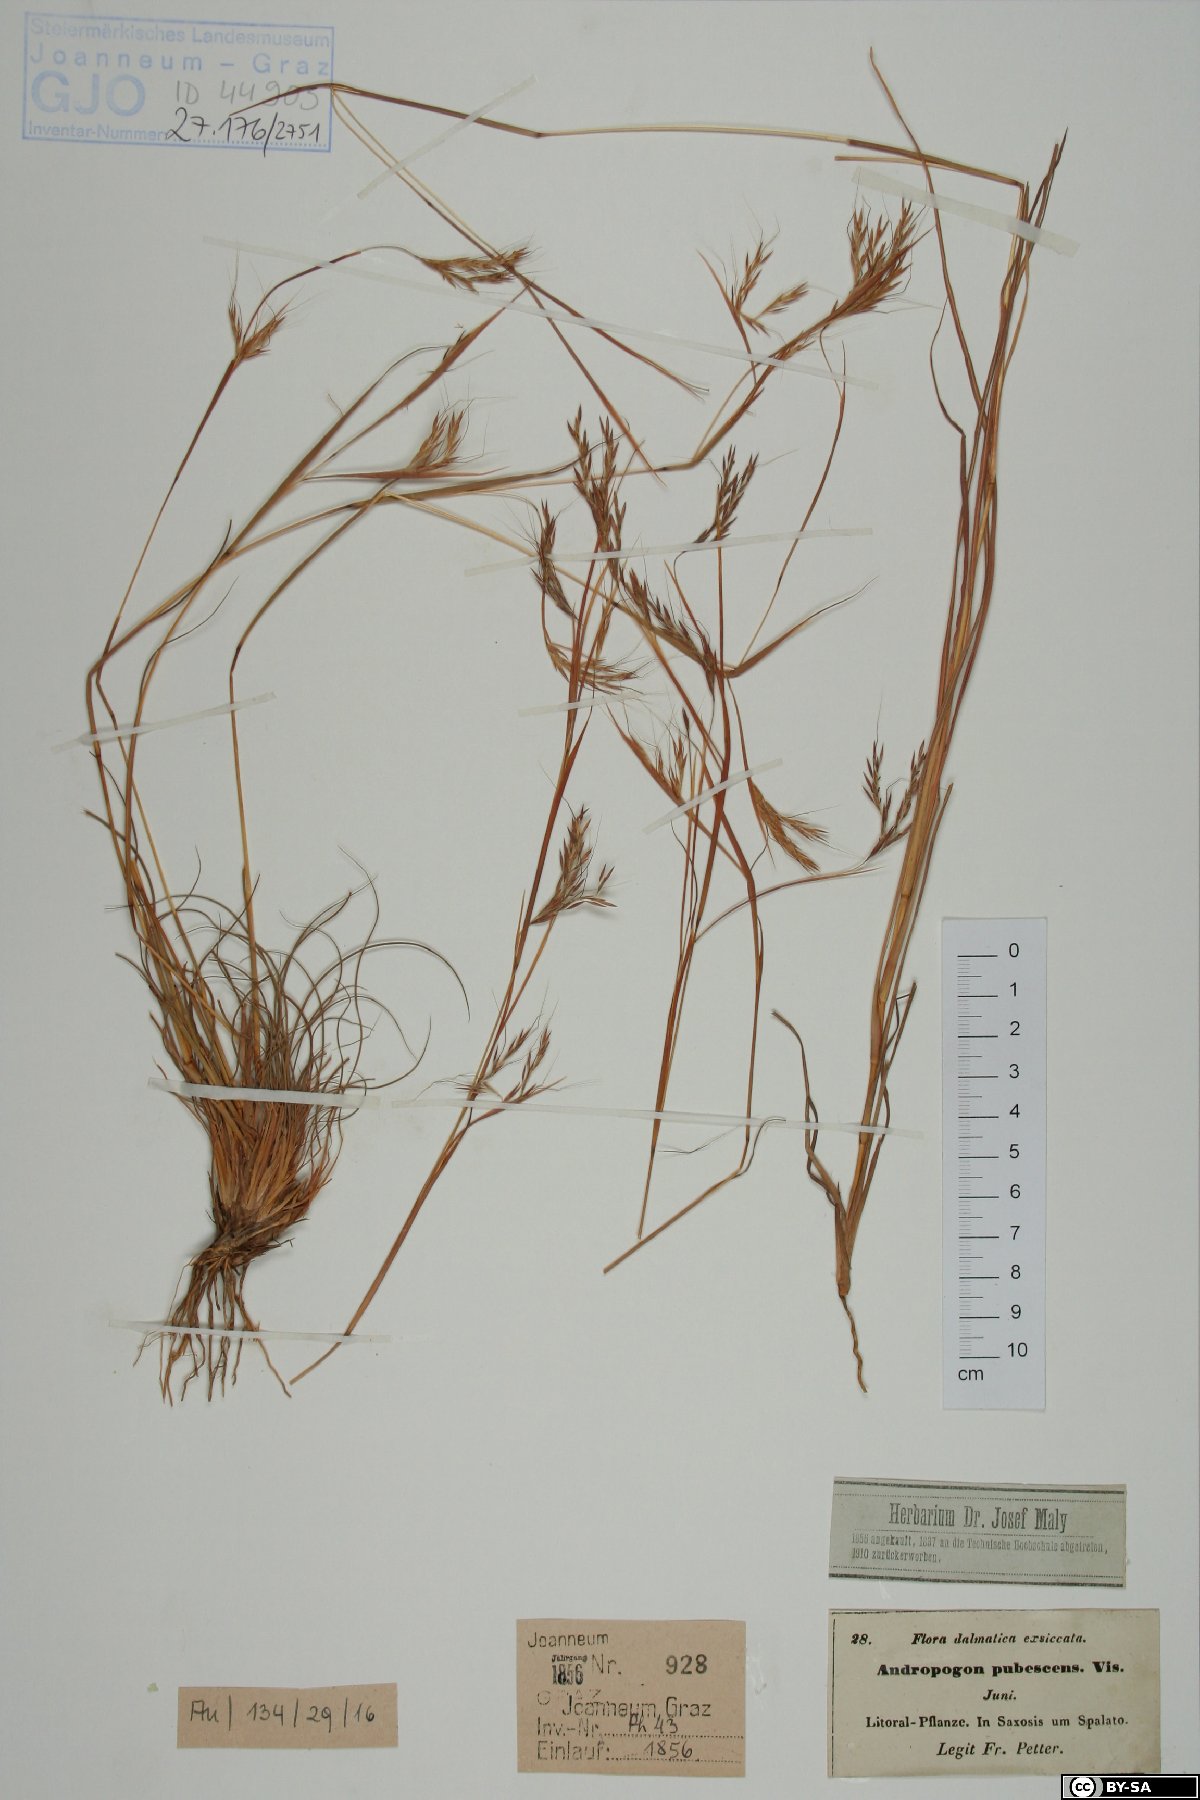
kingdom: Plantae
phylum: Tracheophyta
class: Liliopsida
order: Poales
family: Poaceae
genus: Hyparrhenia
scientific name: Hyparrhenia hirta
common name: Thatching grass
